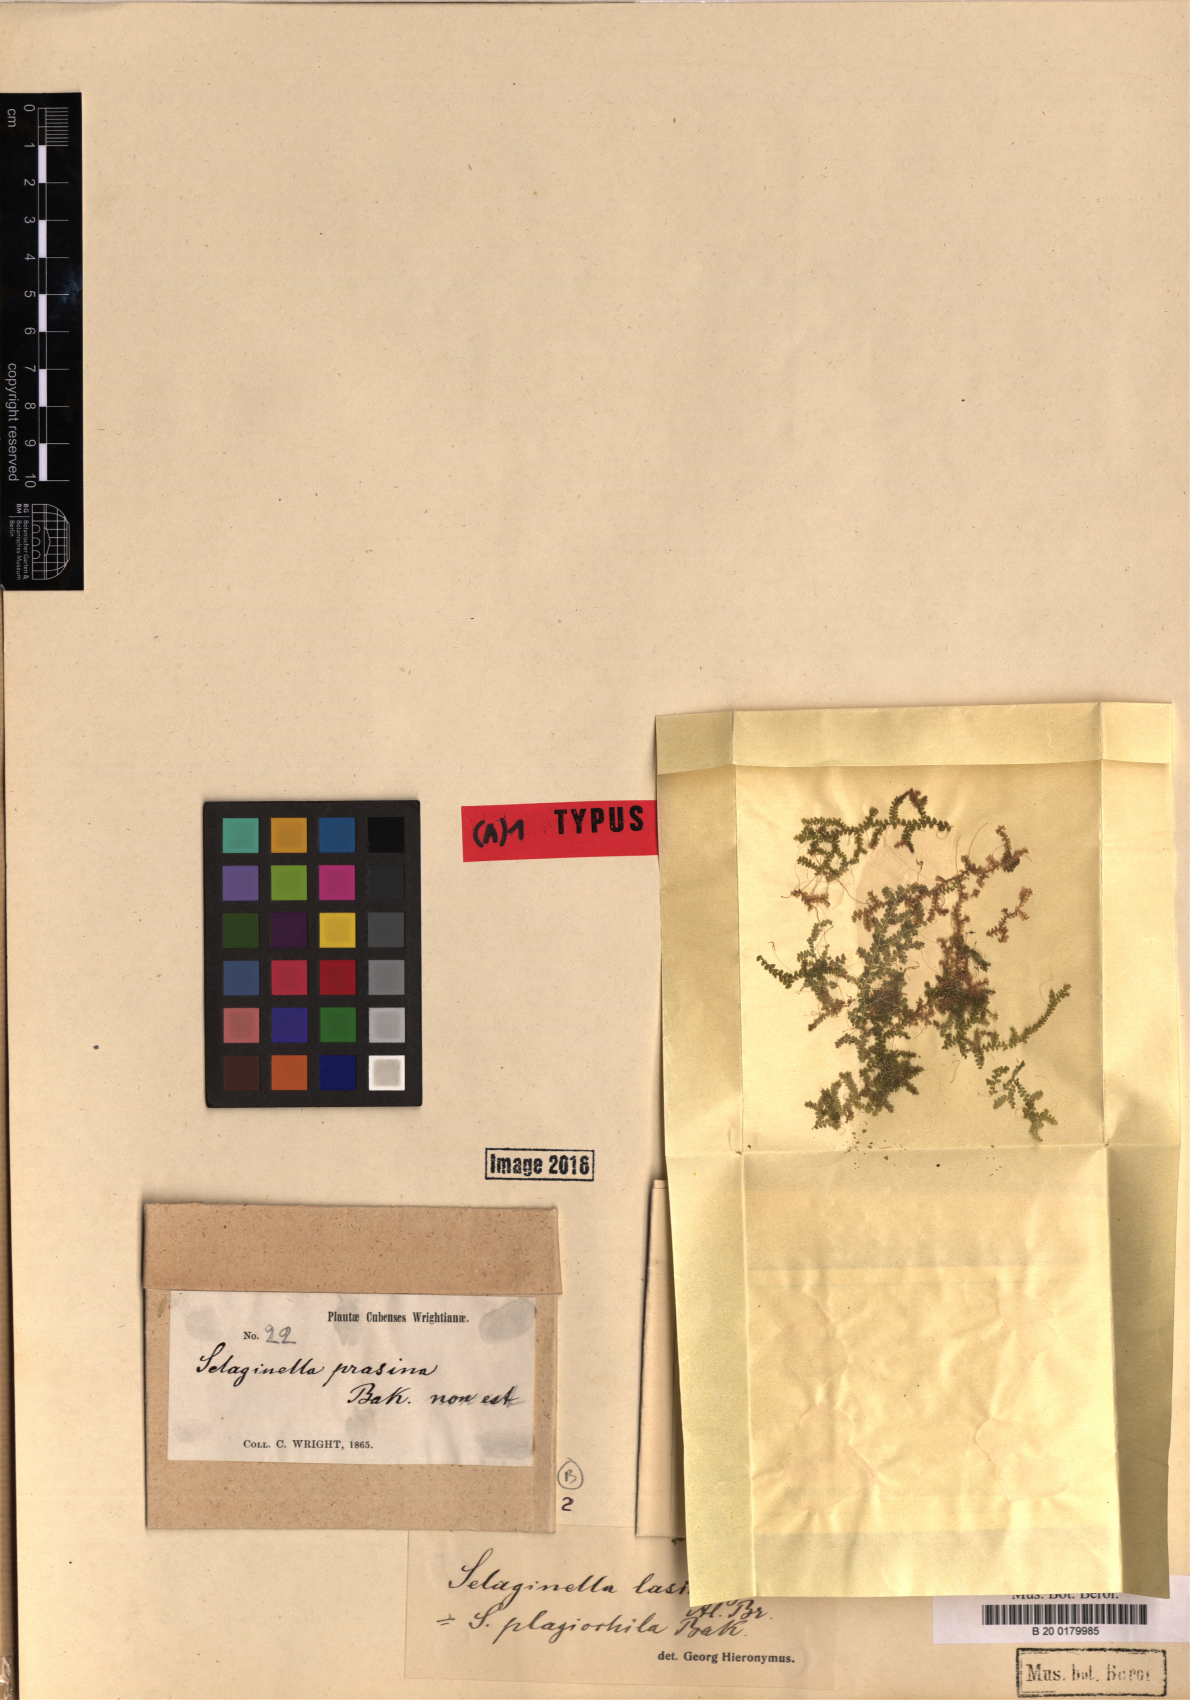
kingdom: Plantae
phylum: Tracheophyta
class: Lycopodiopsida
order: Selaginellales
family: Selaginellaceae
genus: Selaginella
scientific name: Selaginella plagiochila
